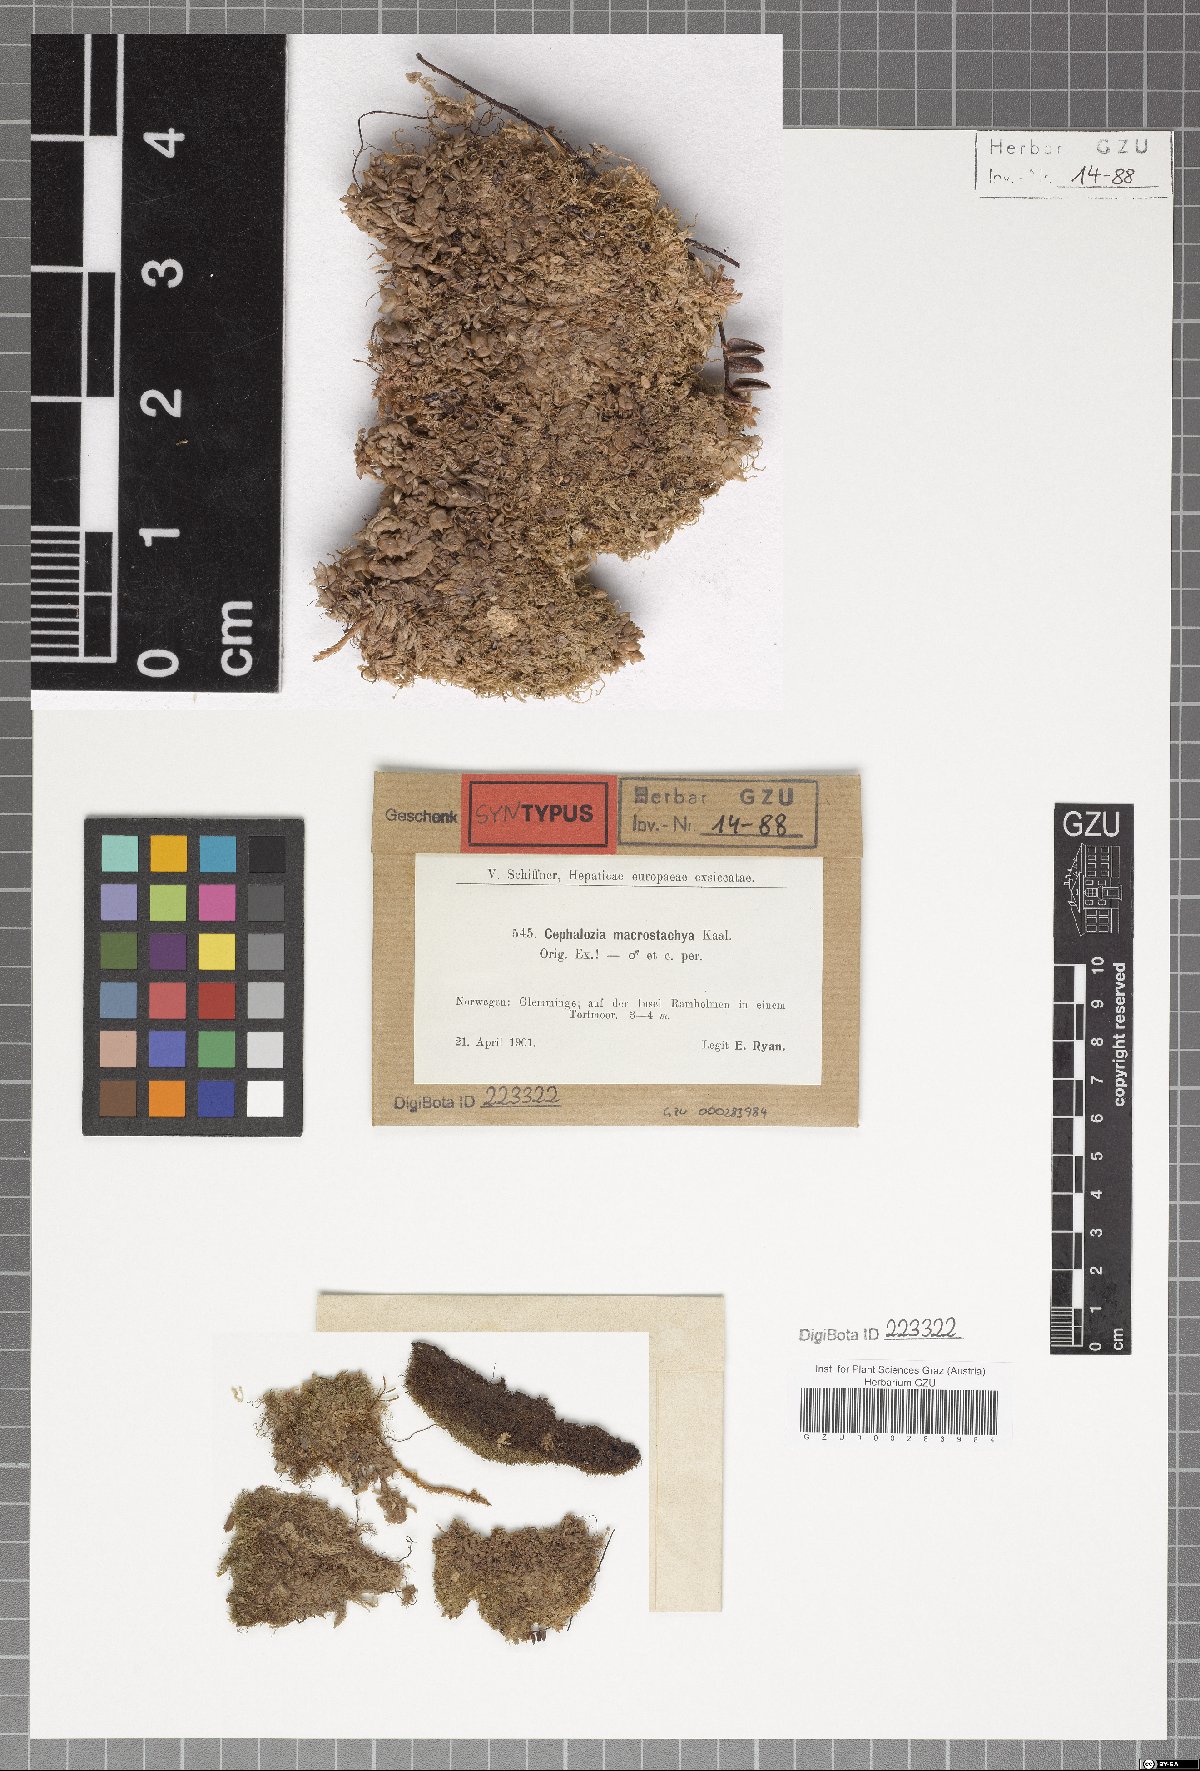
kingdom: Plantae
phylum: Marchantiophyta
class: Jungermanniopsida
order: Jungermanniales
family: Cephaloziaceae
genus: Fuscocephaloziopsis
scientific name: Fuscocephaloziopsis macrostachya
